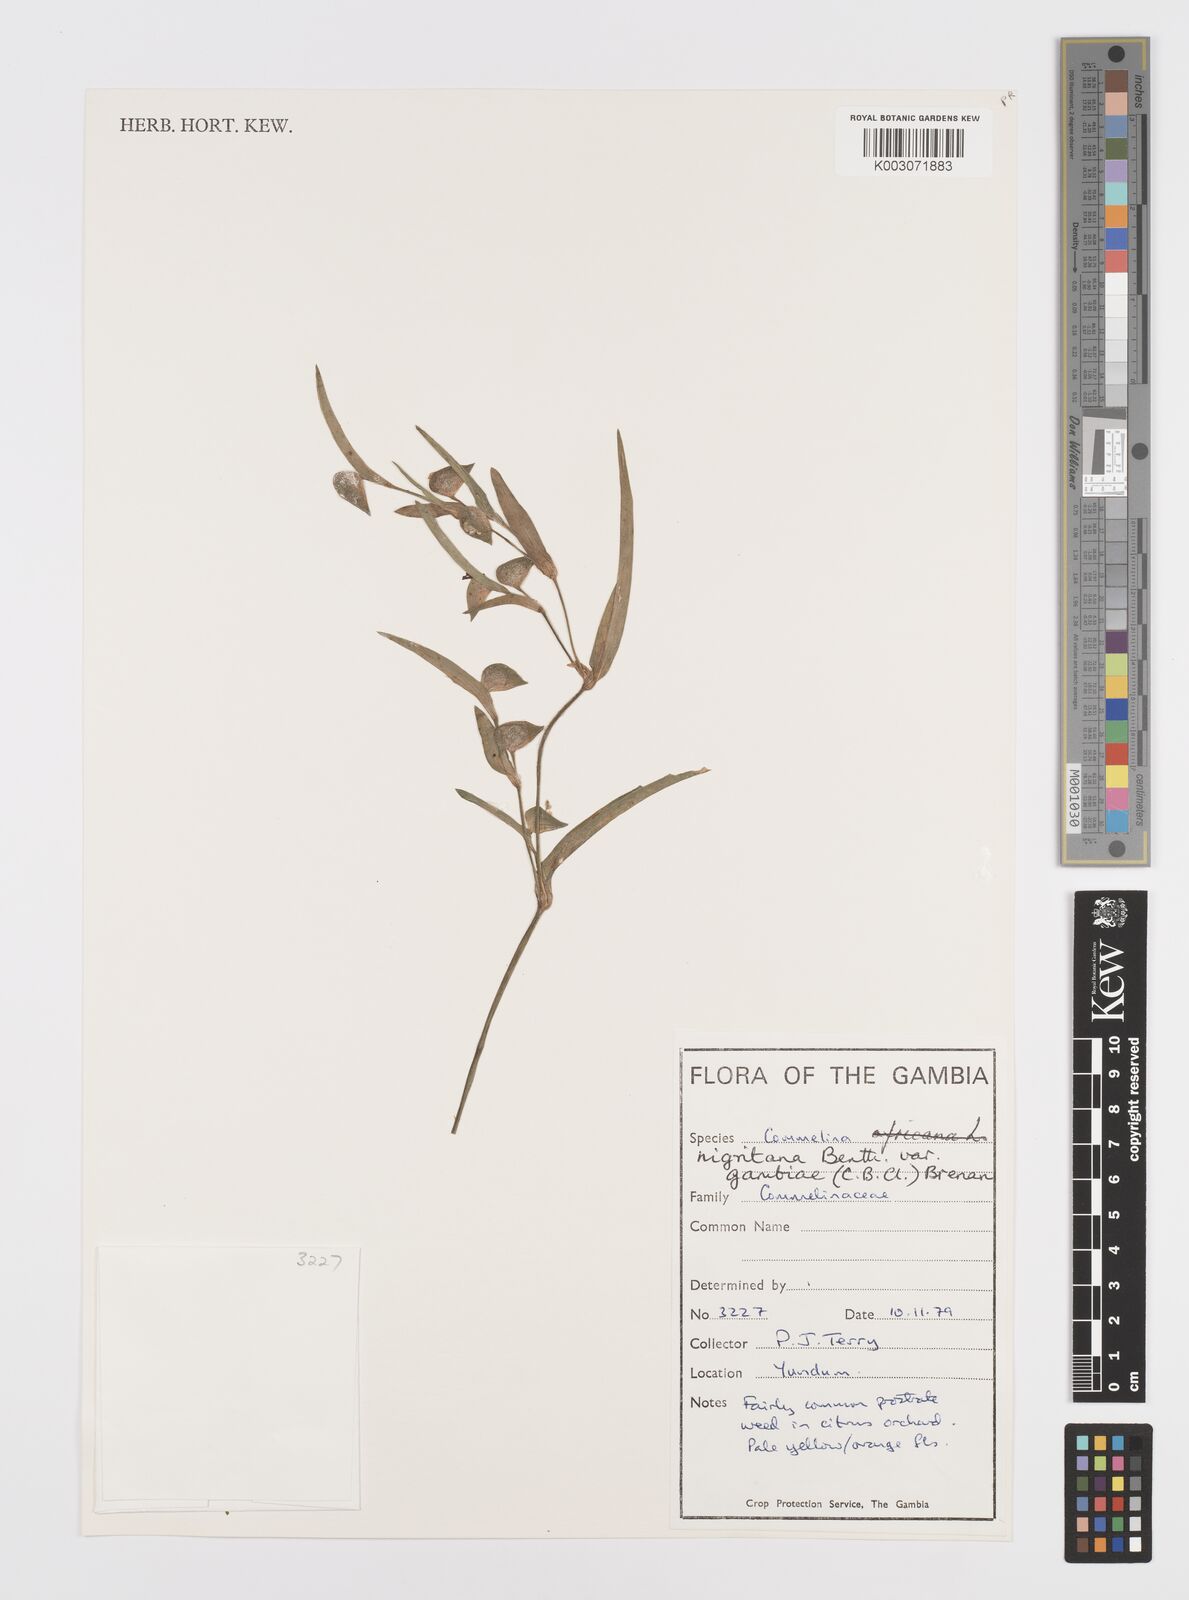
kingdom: Plantae
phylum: Tracheophyta
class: Liliopsida
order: Commelinales
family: Commelinaceae
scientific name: Commelinaceae
